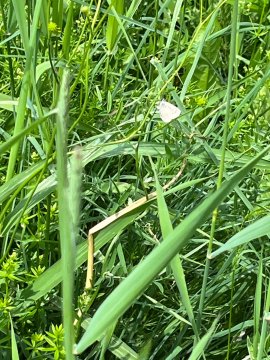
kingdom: Animalia
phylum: Arthropoda
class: Insecta
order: Lepidoptera
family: Lycaenidae
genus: Glaucopsyche
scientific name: Glaucopsyche lygdamus
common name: Silvery Blue
